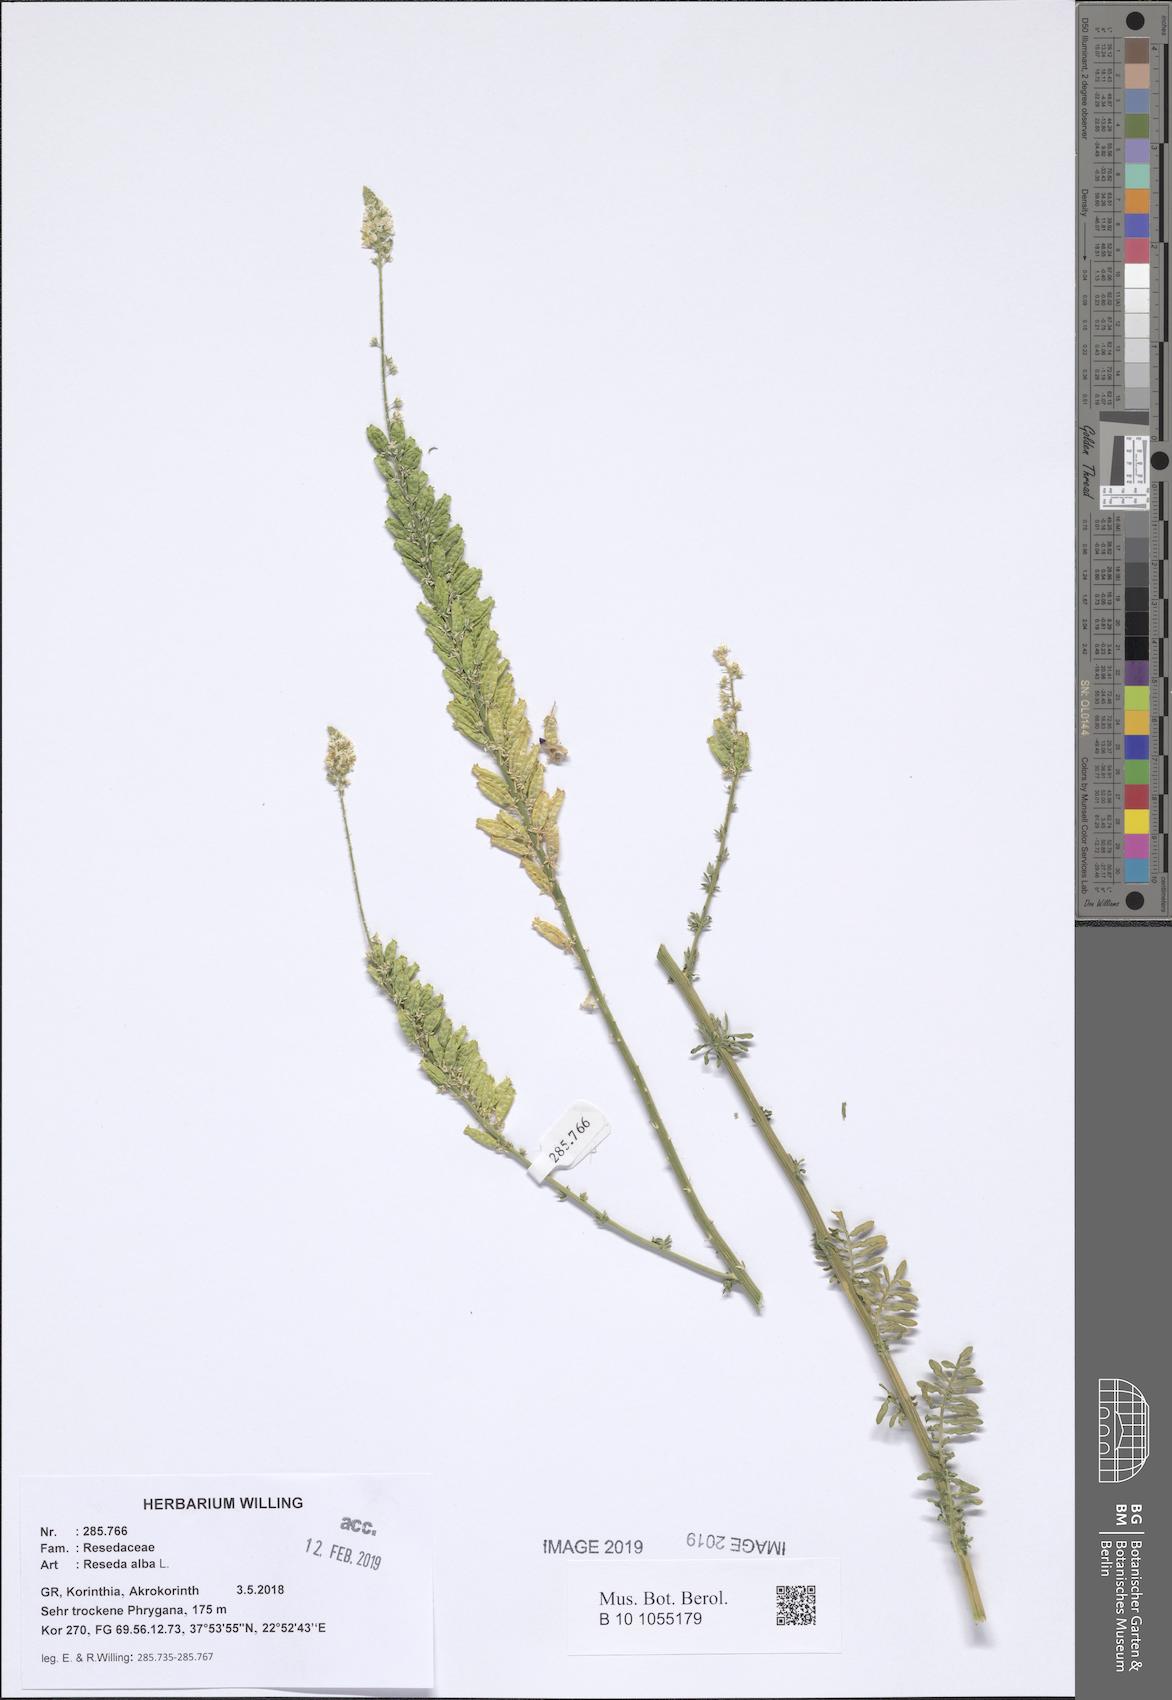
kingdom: Plantae
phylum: Tracheophyta
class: Magnoliopsida
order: Brassicales
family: Resedaceae
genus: Reseda
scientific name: Reseda alba
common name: White mignonette
